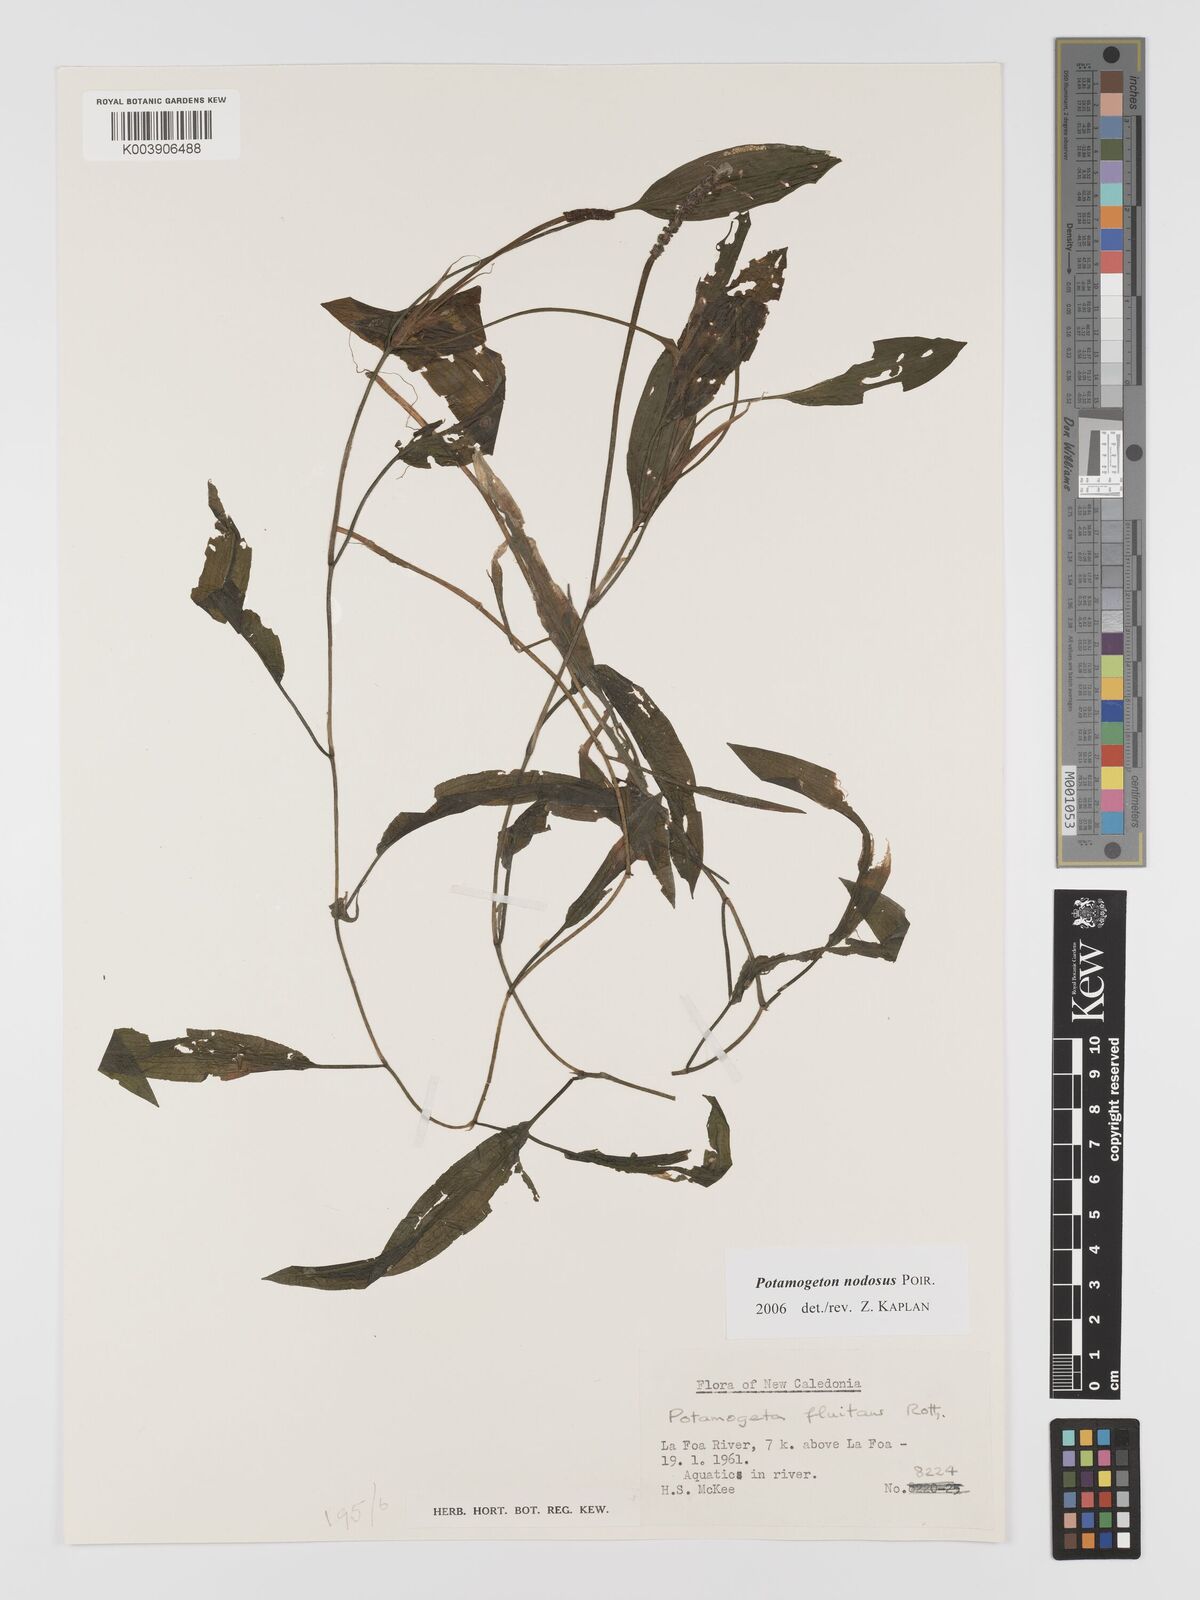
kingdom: Plantae
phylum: Tracheophyta
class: Liliopsida
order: Alismatales
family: Potamogetonaceae
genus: Potamogeton
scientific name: Potamogeton nodosus
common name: Loddon pondweed
